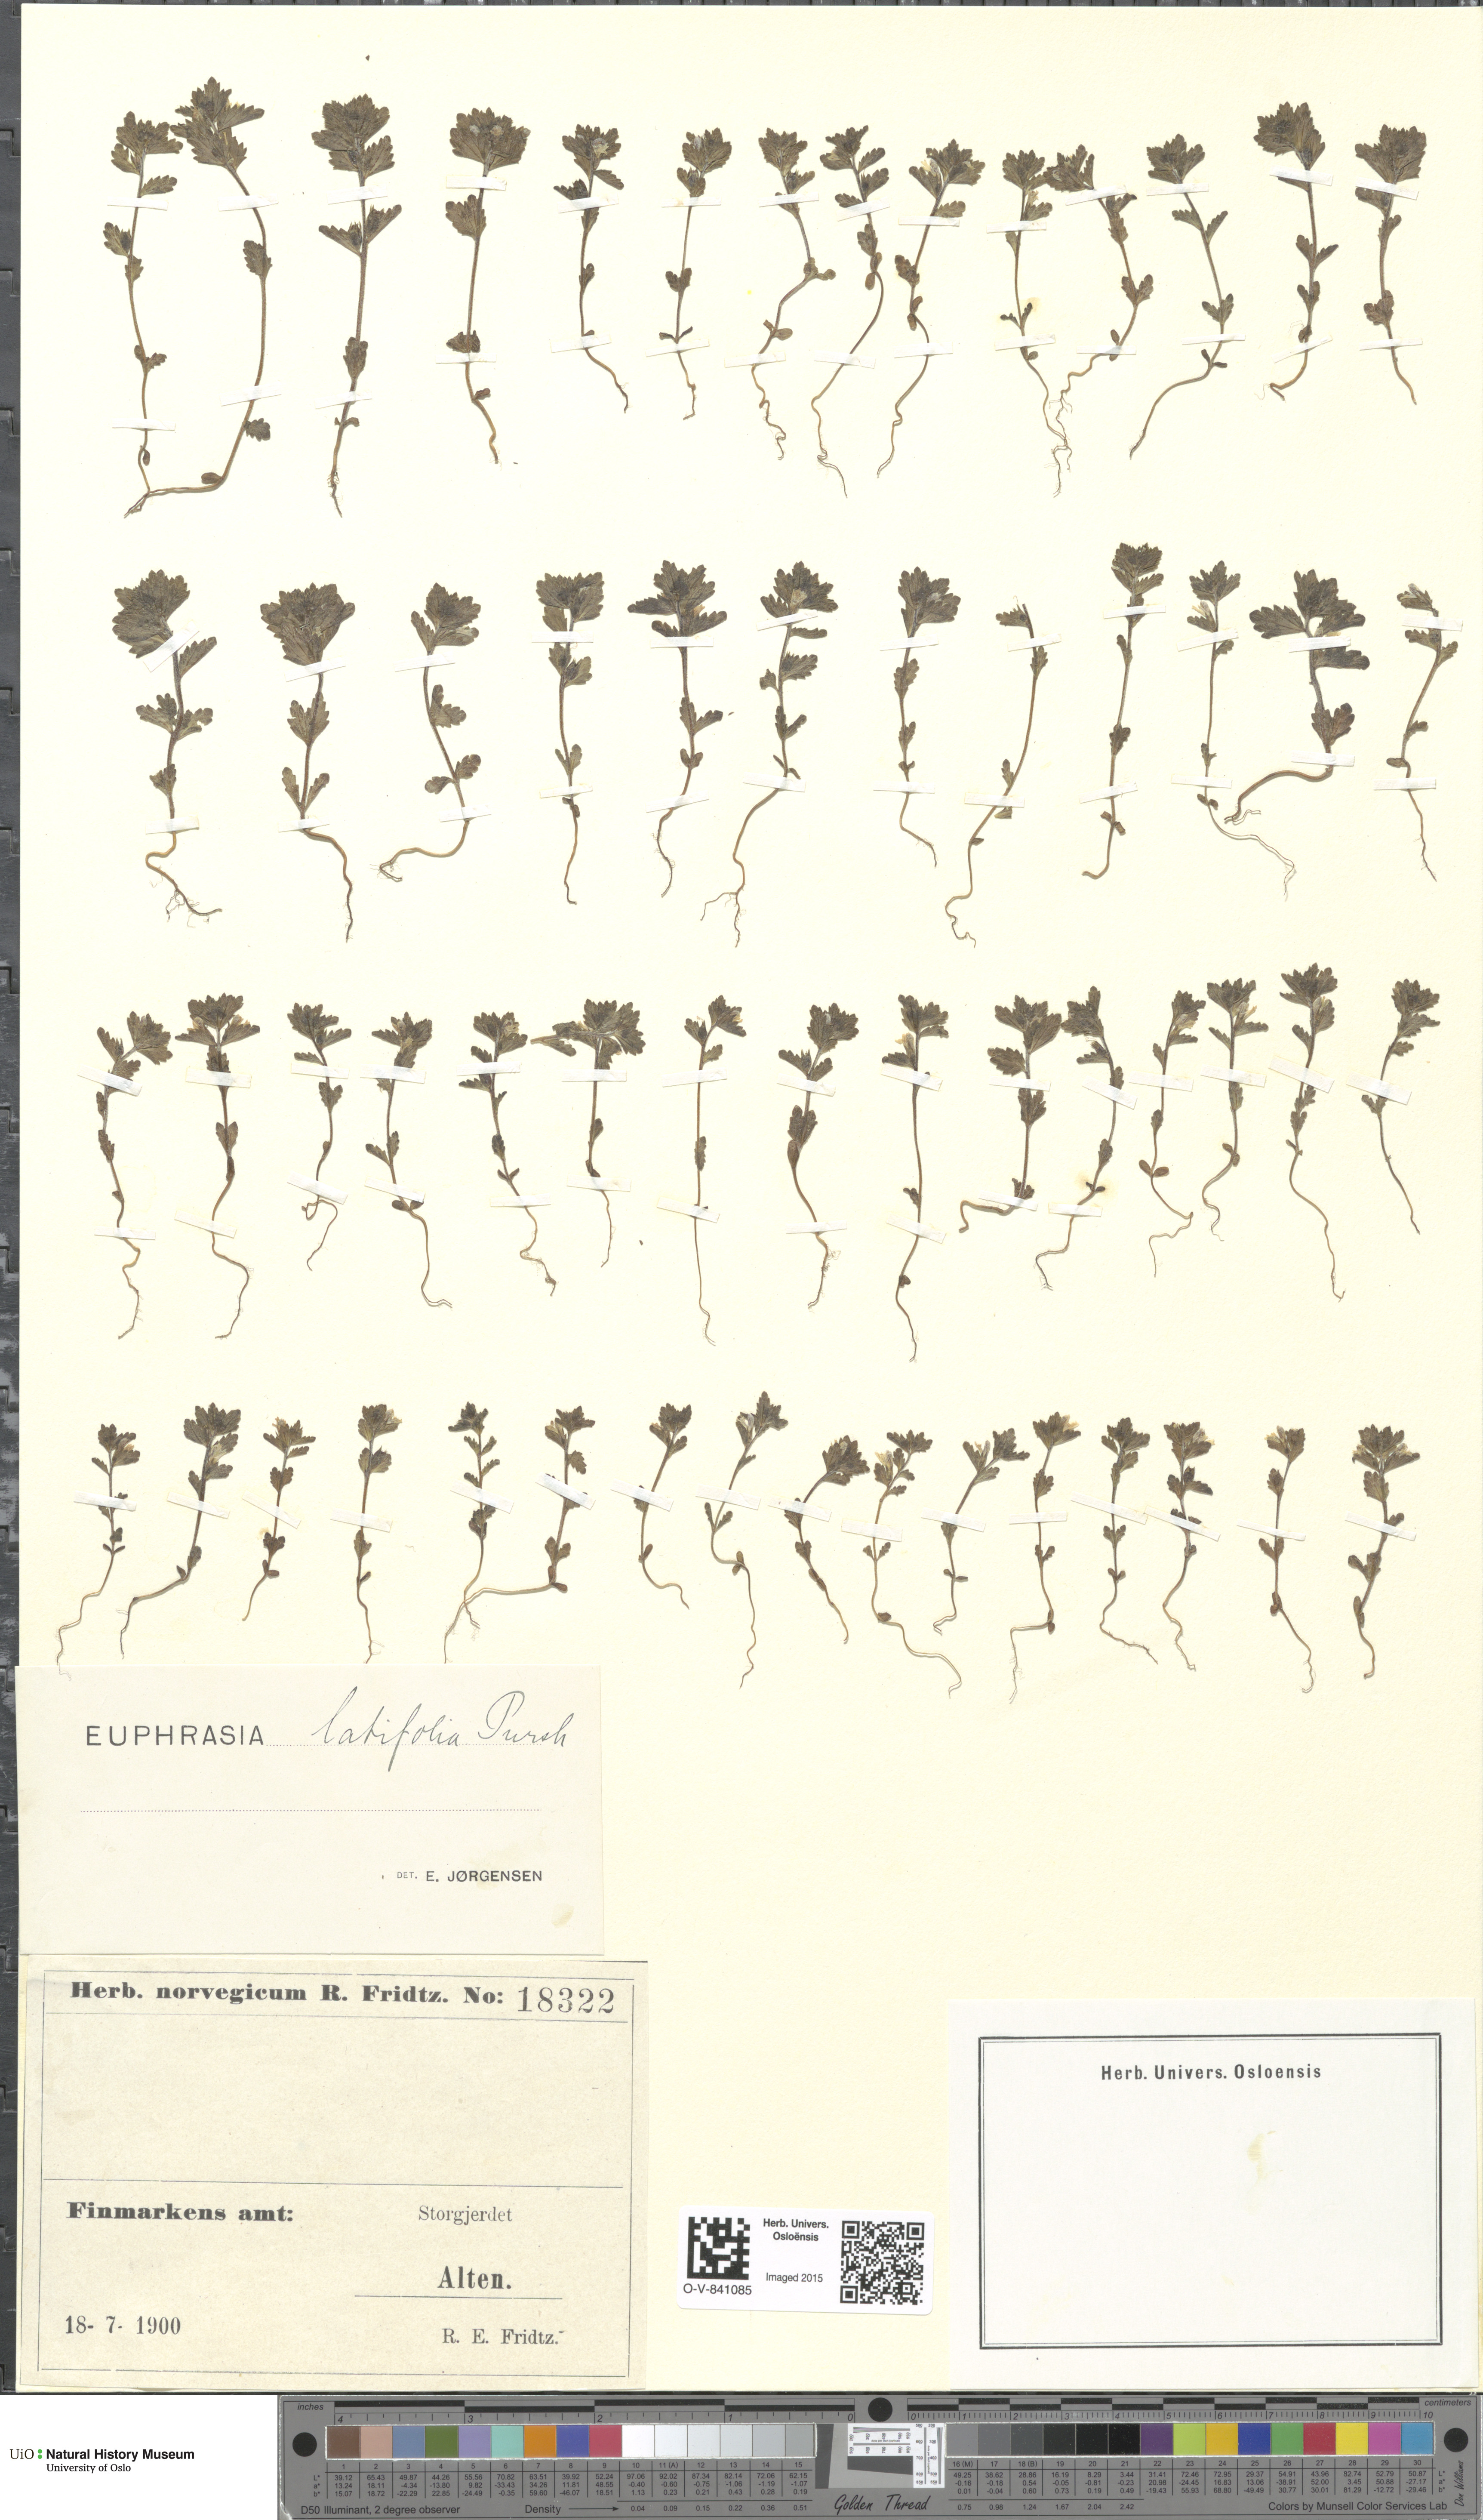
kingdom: Plantae
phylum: Tracheophyta
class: Magnoliopsida
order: Lamiales
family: Orobanchaceae
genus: Euphrasia
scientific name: Euphrasia wettsteinii
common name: Wettstein's eyebright
